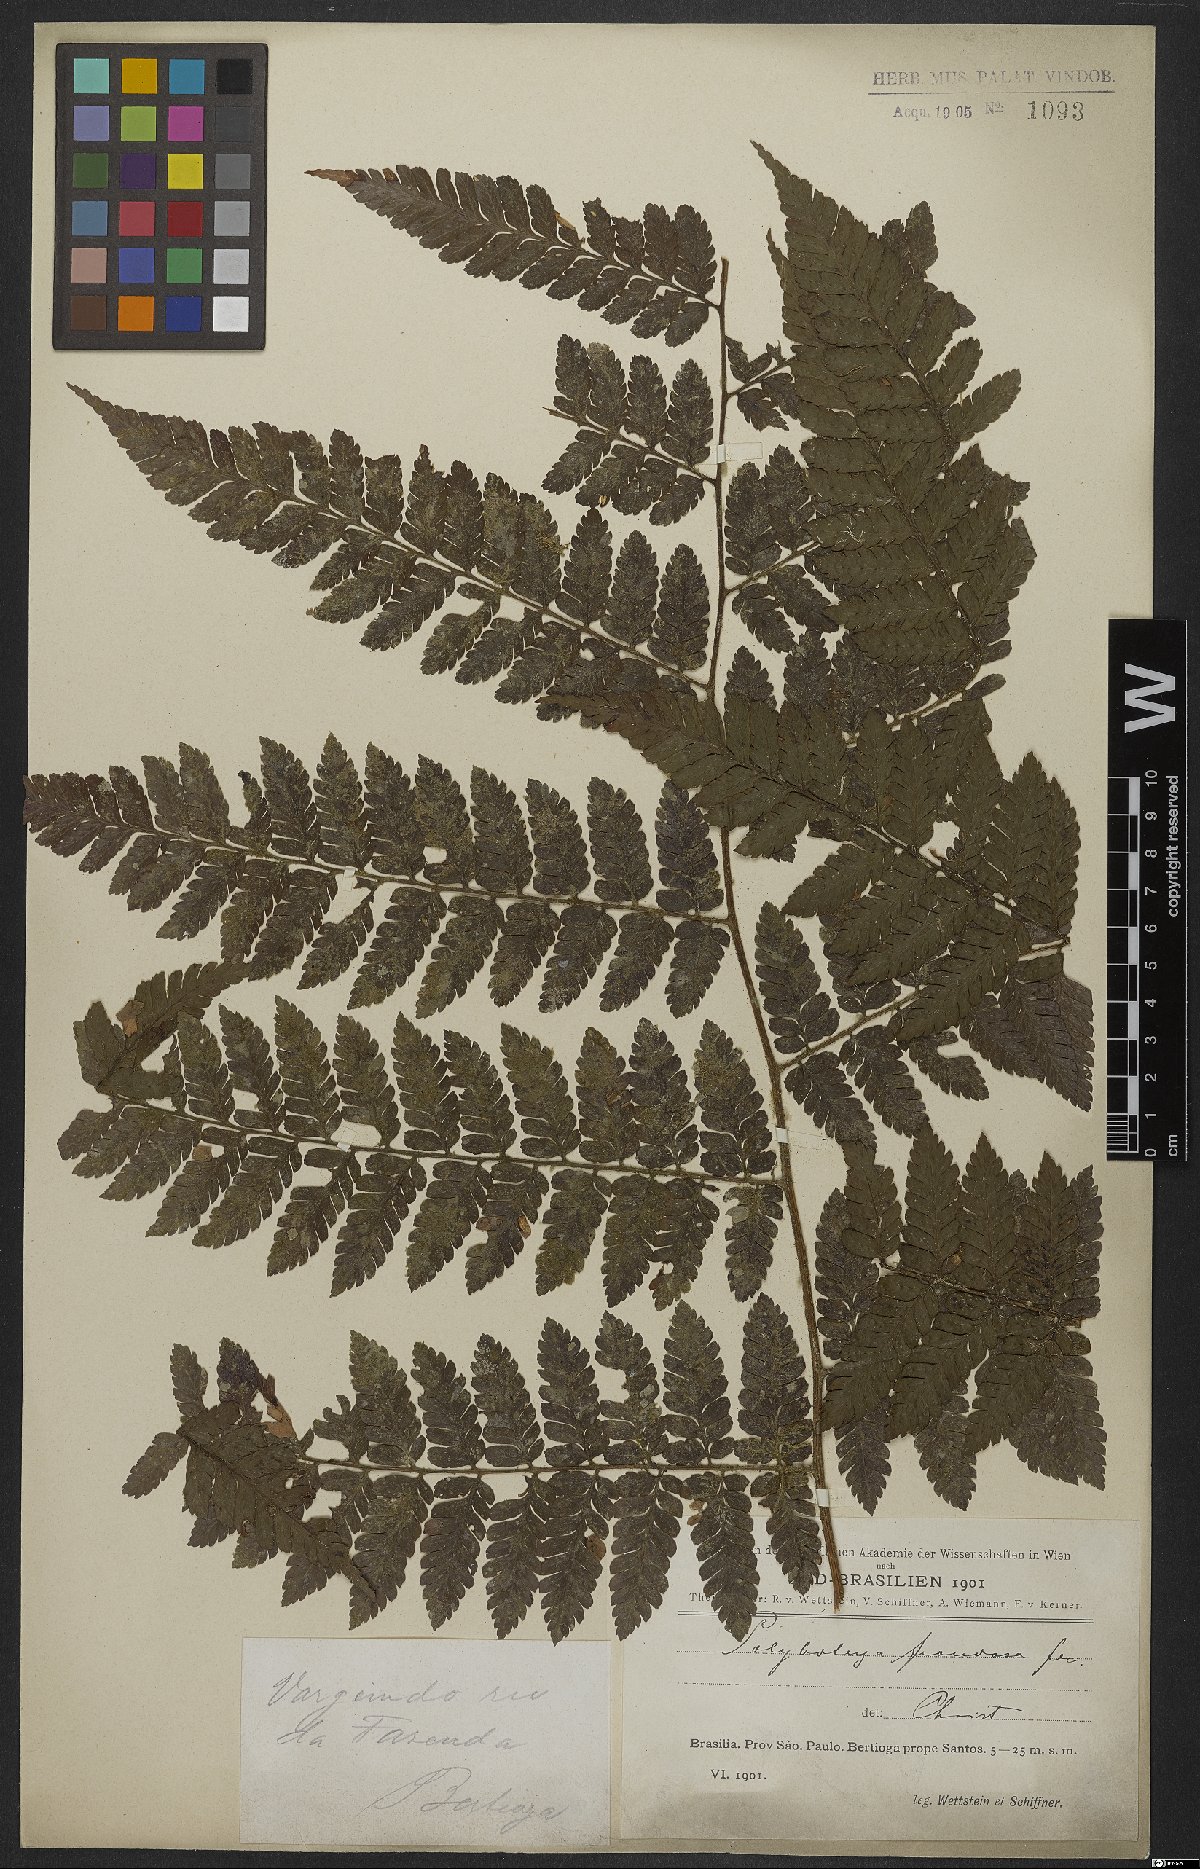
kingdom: Plantae
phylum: Tracheophyta
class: Polypodiopsida
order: Polypodiales
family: Dryopteridaceae
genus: Polybotrya
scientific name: Polybotrya cylindrica
